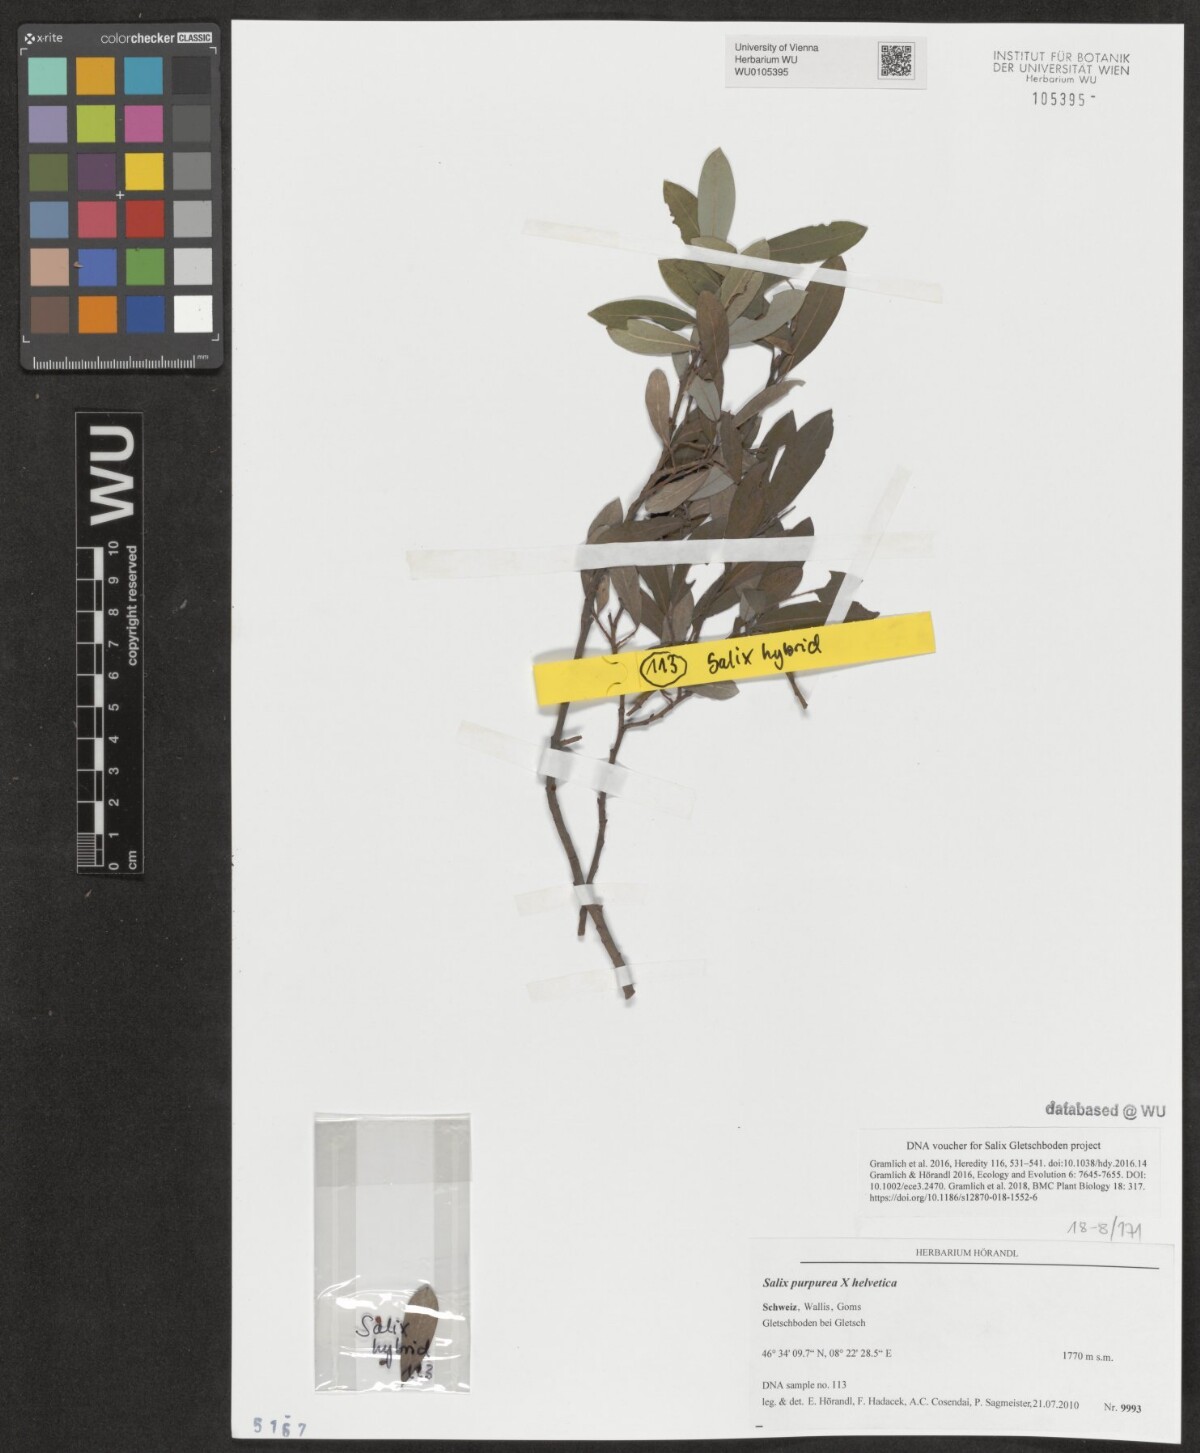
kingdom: Plantae
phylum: Tracheophyta
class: Magnoliopsida
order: Malpighiales
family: Salicaceae
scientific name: Salicaceae
